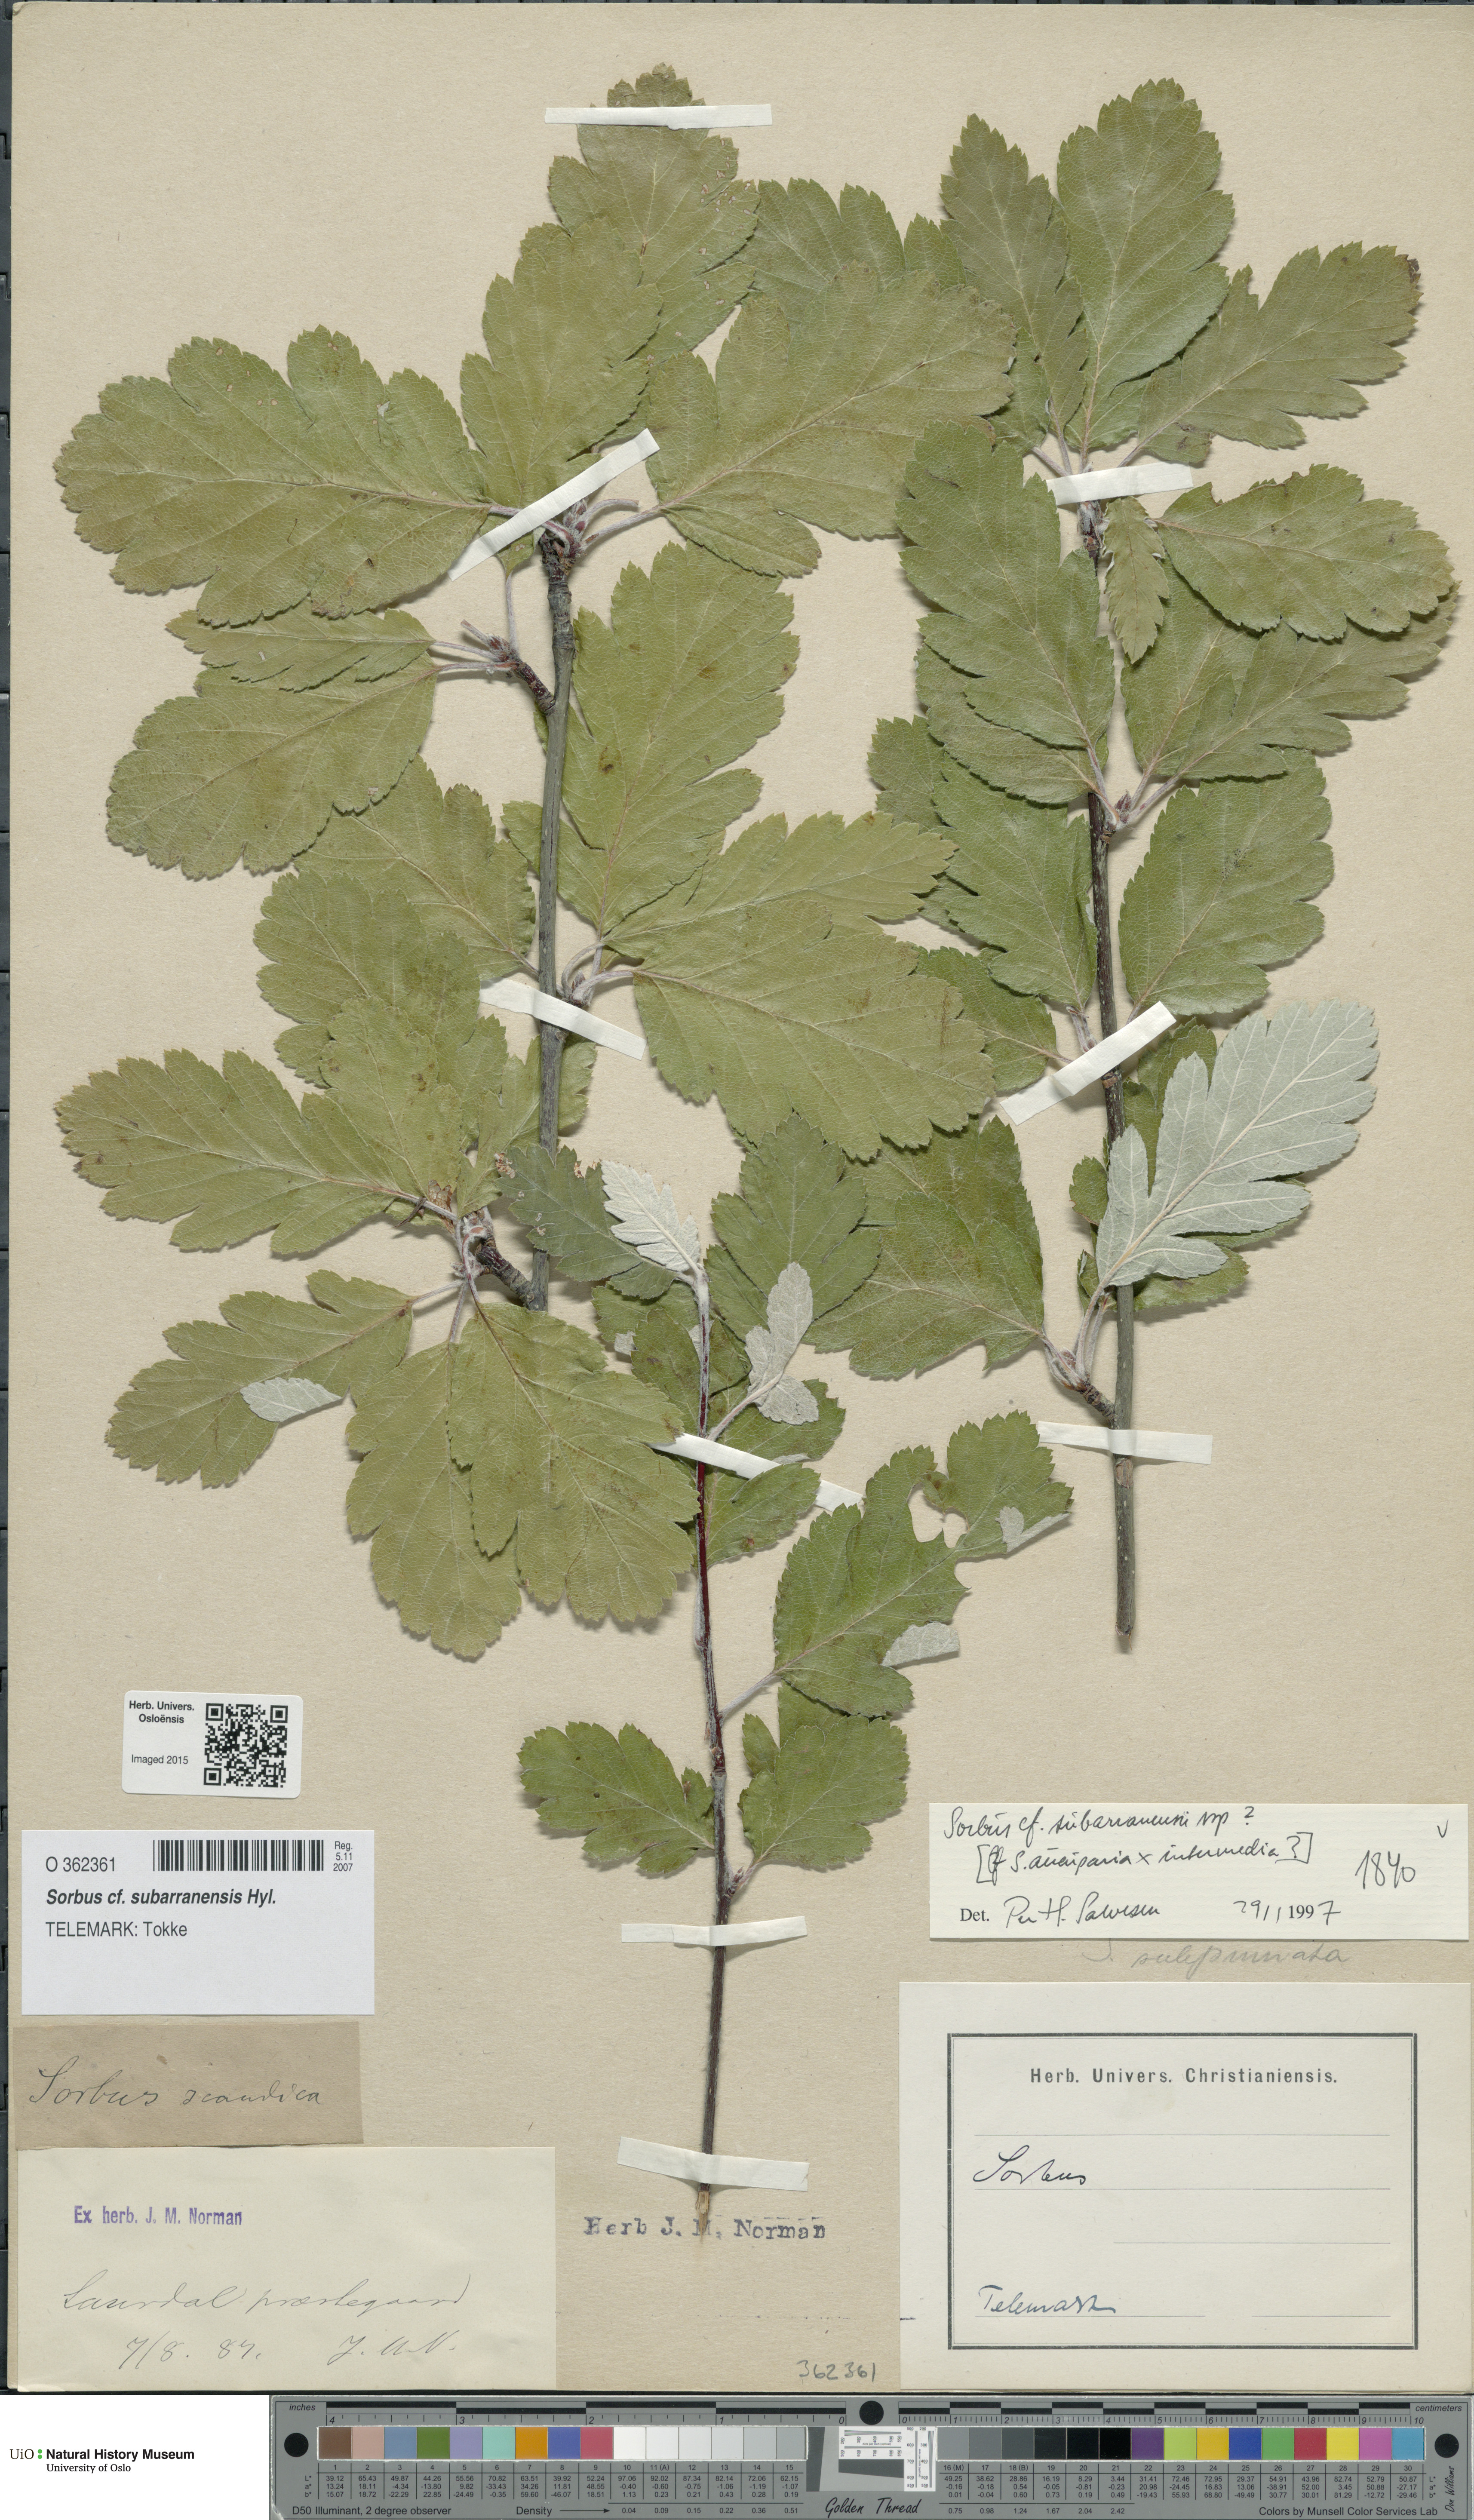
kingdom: Plantae
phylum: Tracheophyta
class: Magnoliopsida
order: Rosales
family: Rosaceae
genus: Hedlundia
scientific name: Hedlundia subarranensis
